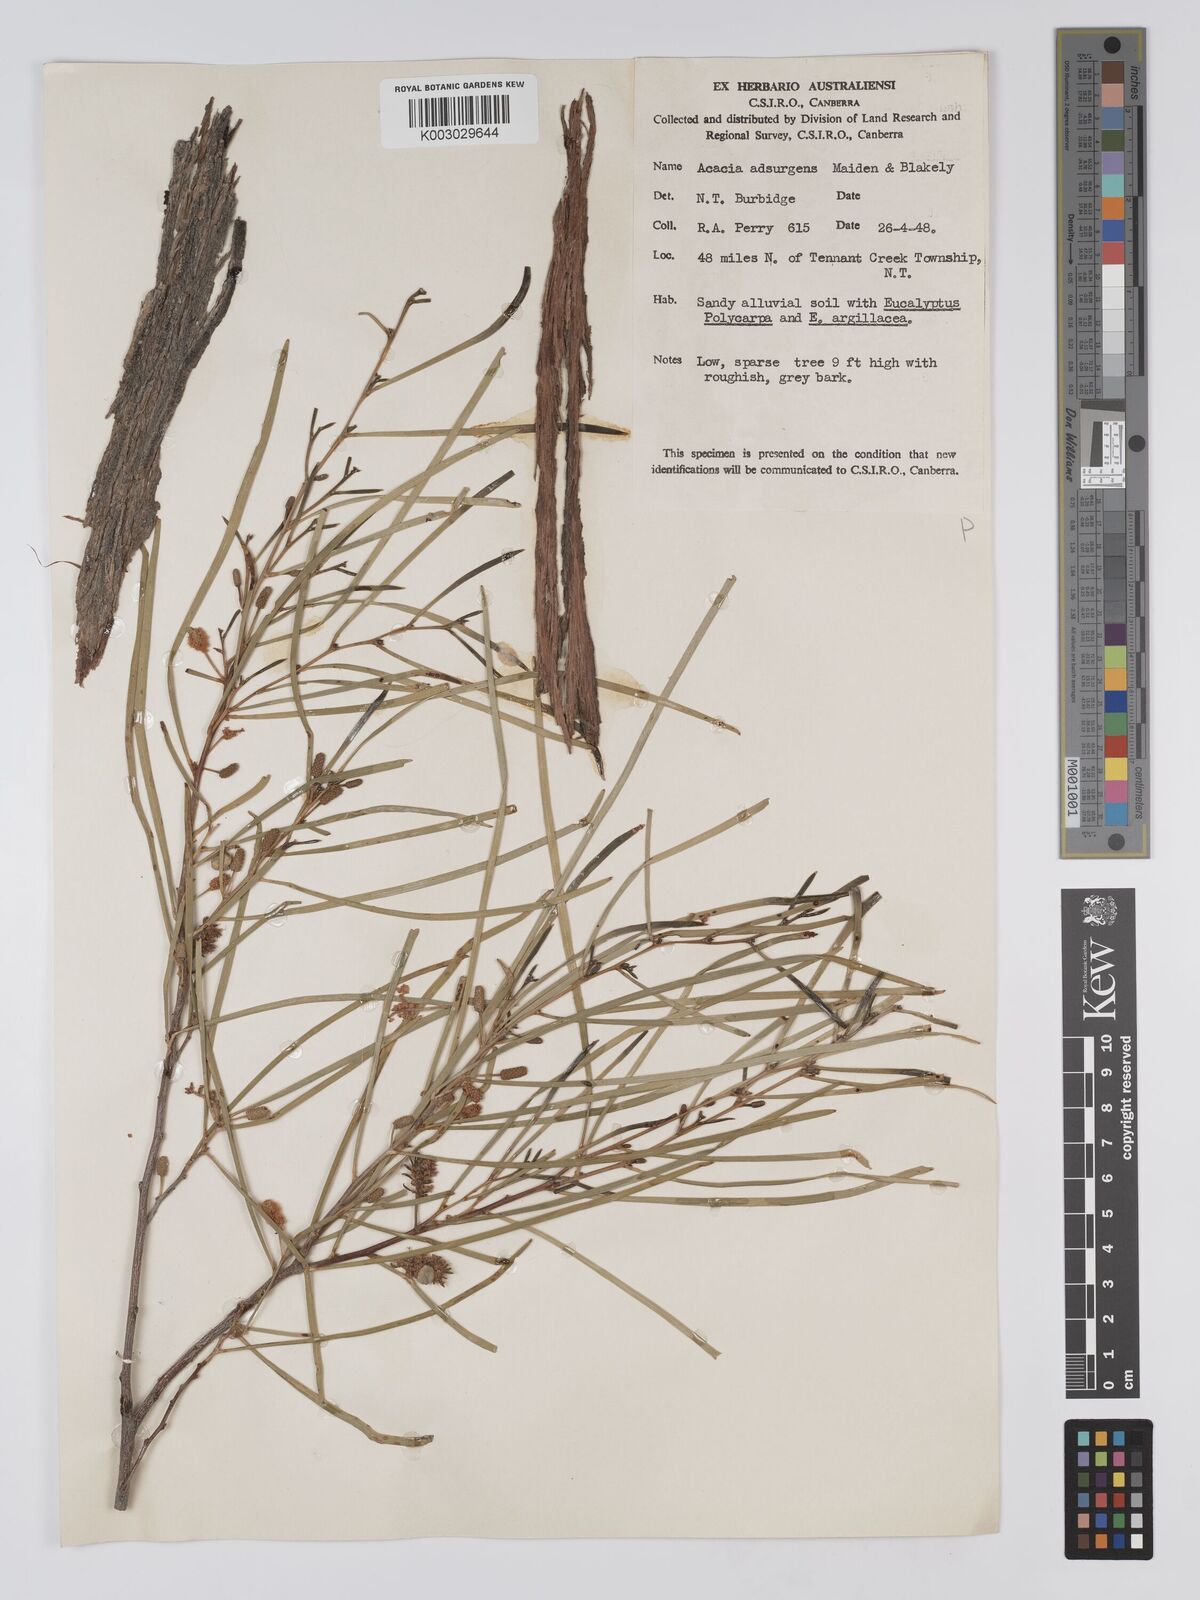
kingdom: Plantae
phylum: Tracheophyta
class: Magnoliopsida
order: Fabales
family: Fabaceae
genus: Acacia
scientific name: Acacia adsurgens
